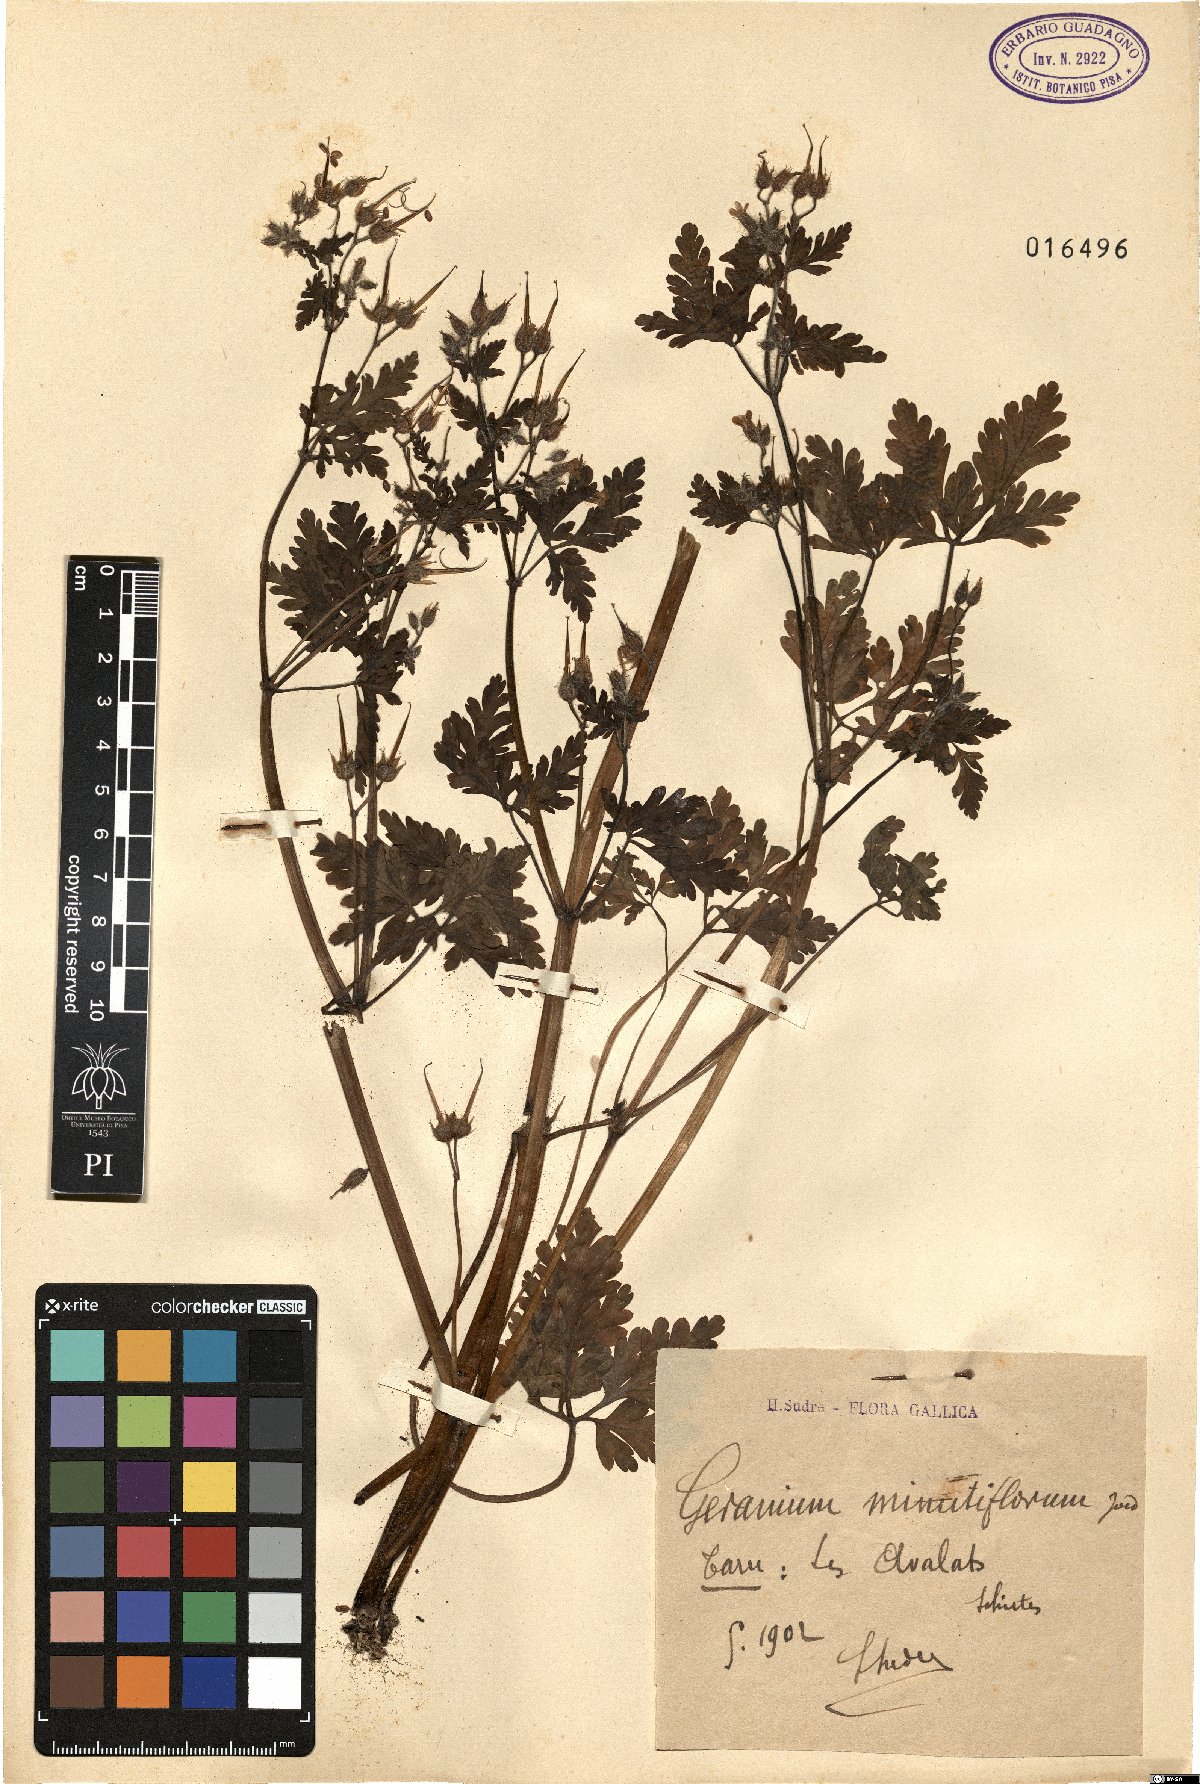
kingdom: Plantae
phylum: Tracheophyta
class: Magnoliopsida
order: Geraniales
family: Geraniaceae
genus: Geranium
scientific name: Geranium purpureum
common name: Little-robin
